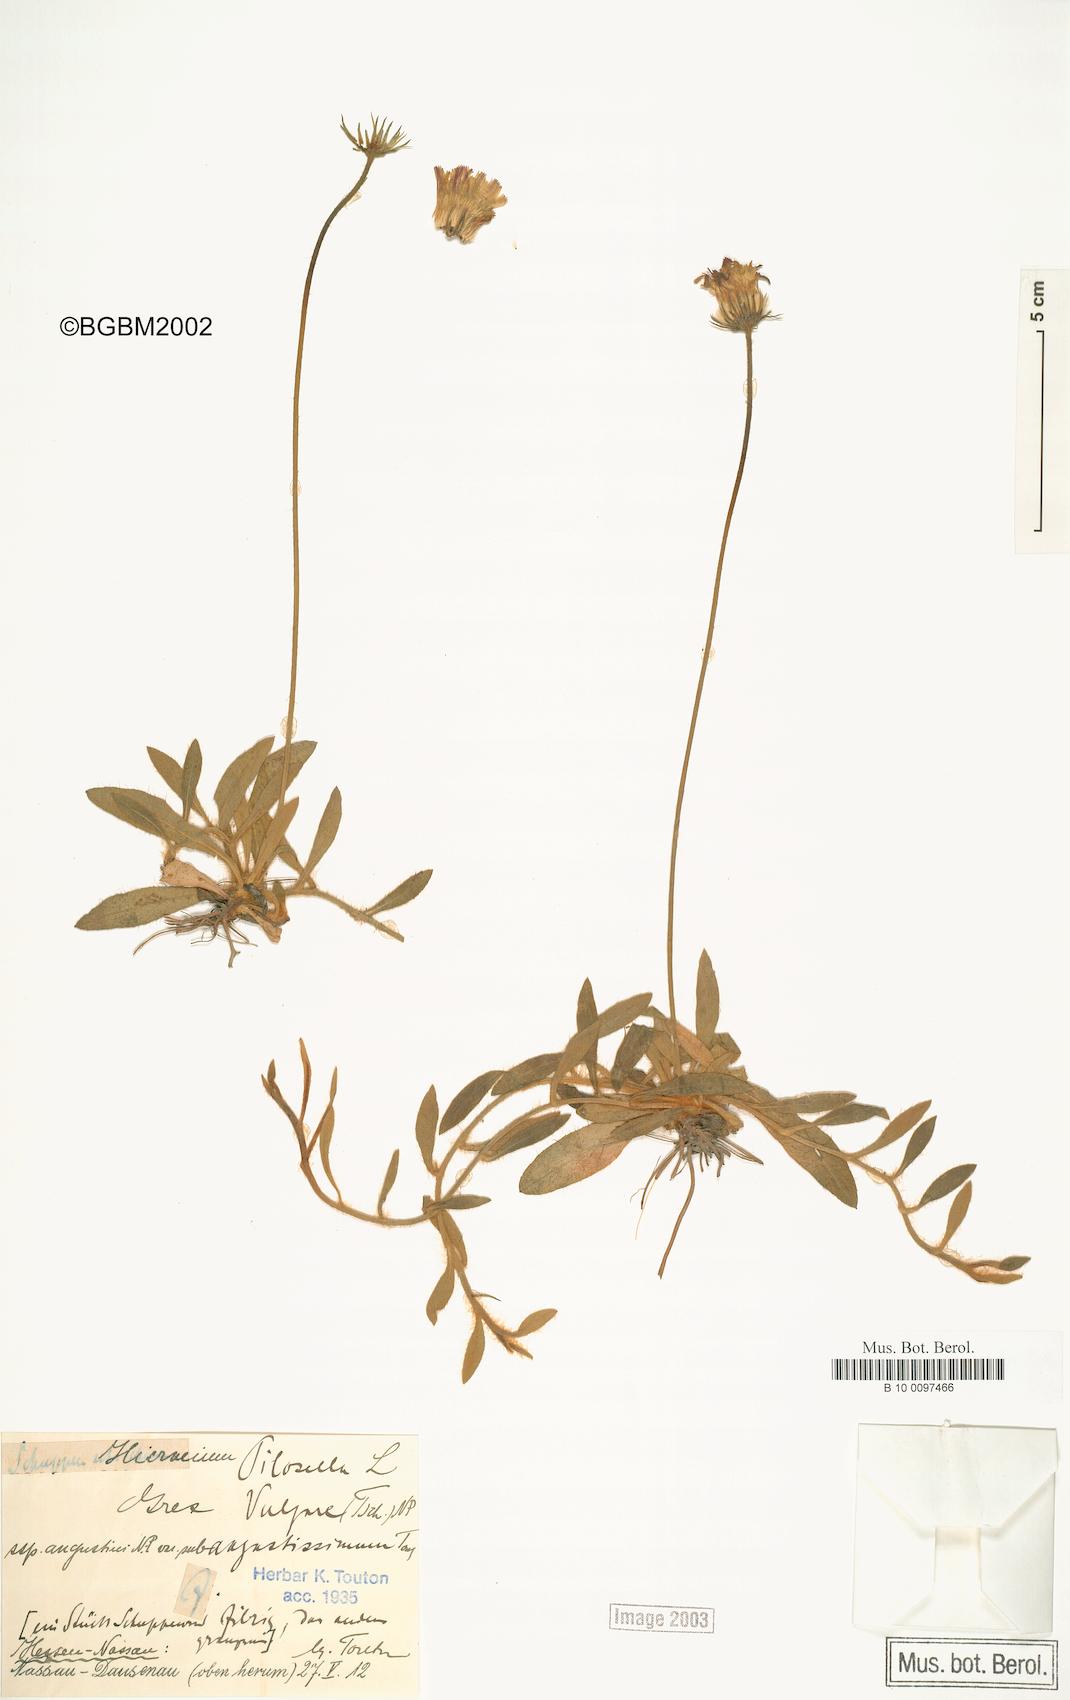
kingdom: Plantae
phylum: Tracheophyta
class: Magnoliopsida
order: Asterales
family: Asteraceae
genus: Pilosella
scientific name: Pilosella officinarum
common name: Mouse-ear hawkweed
